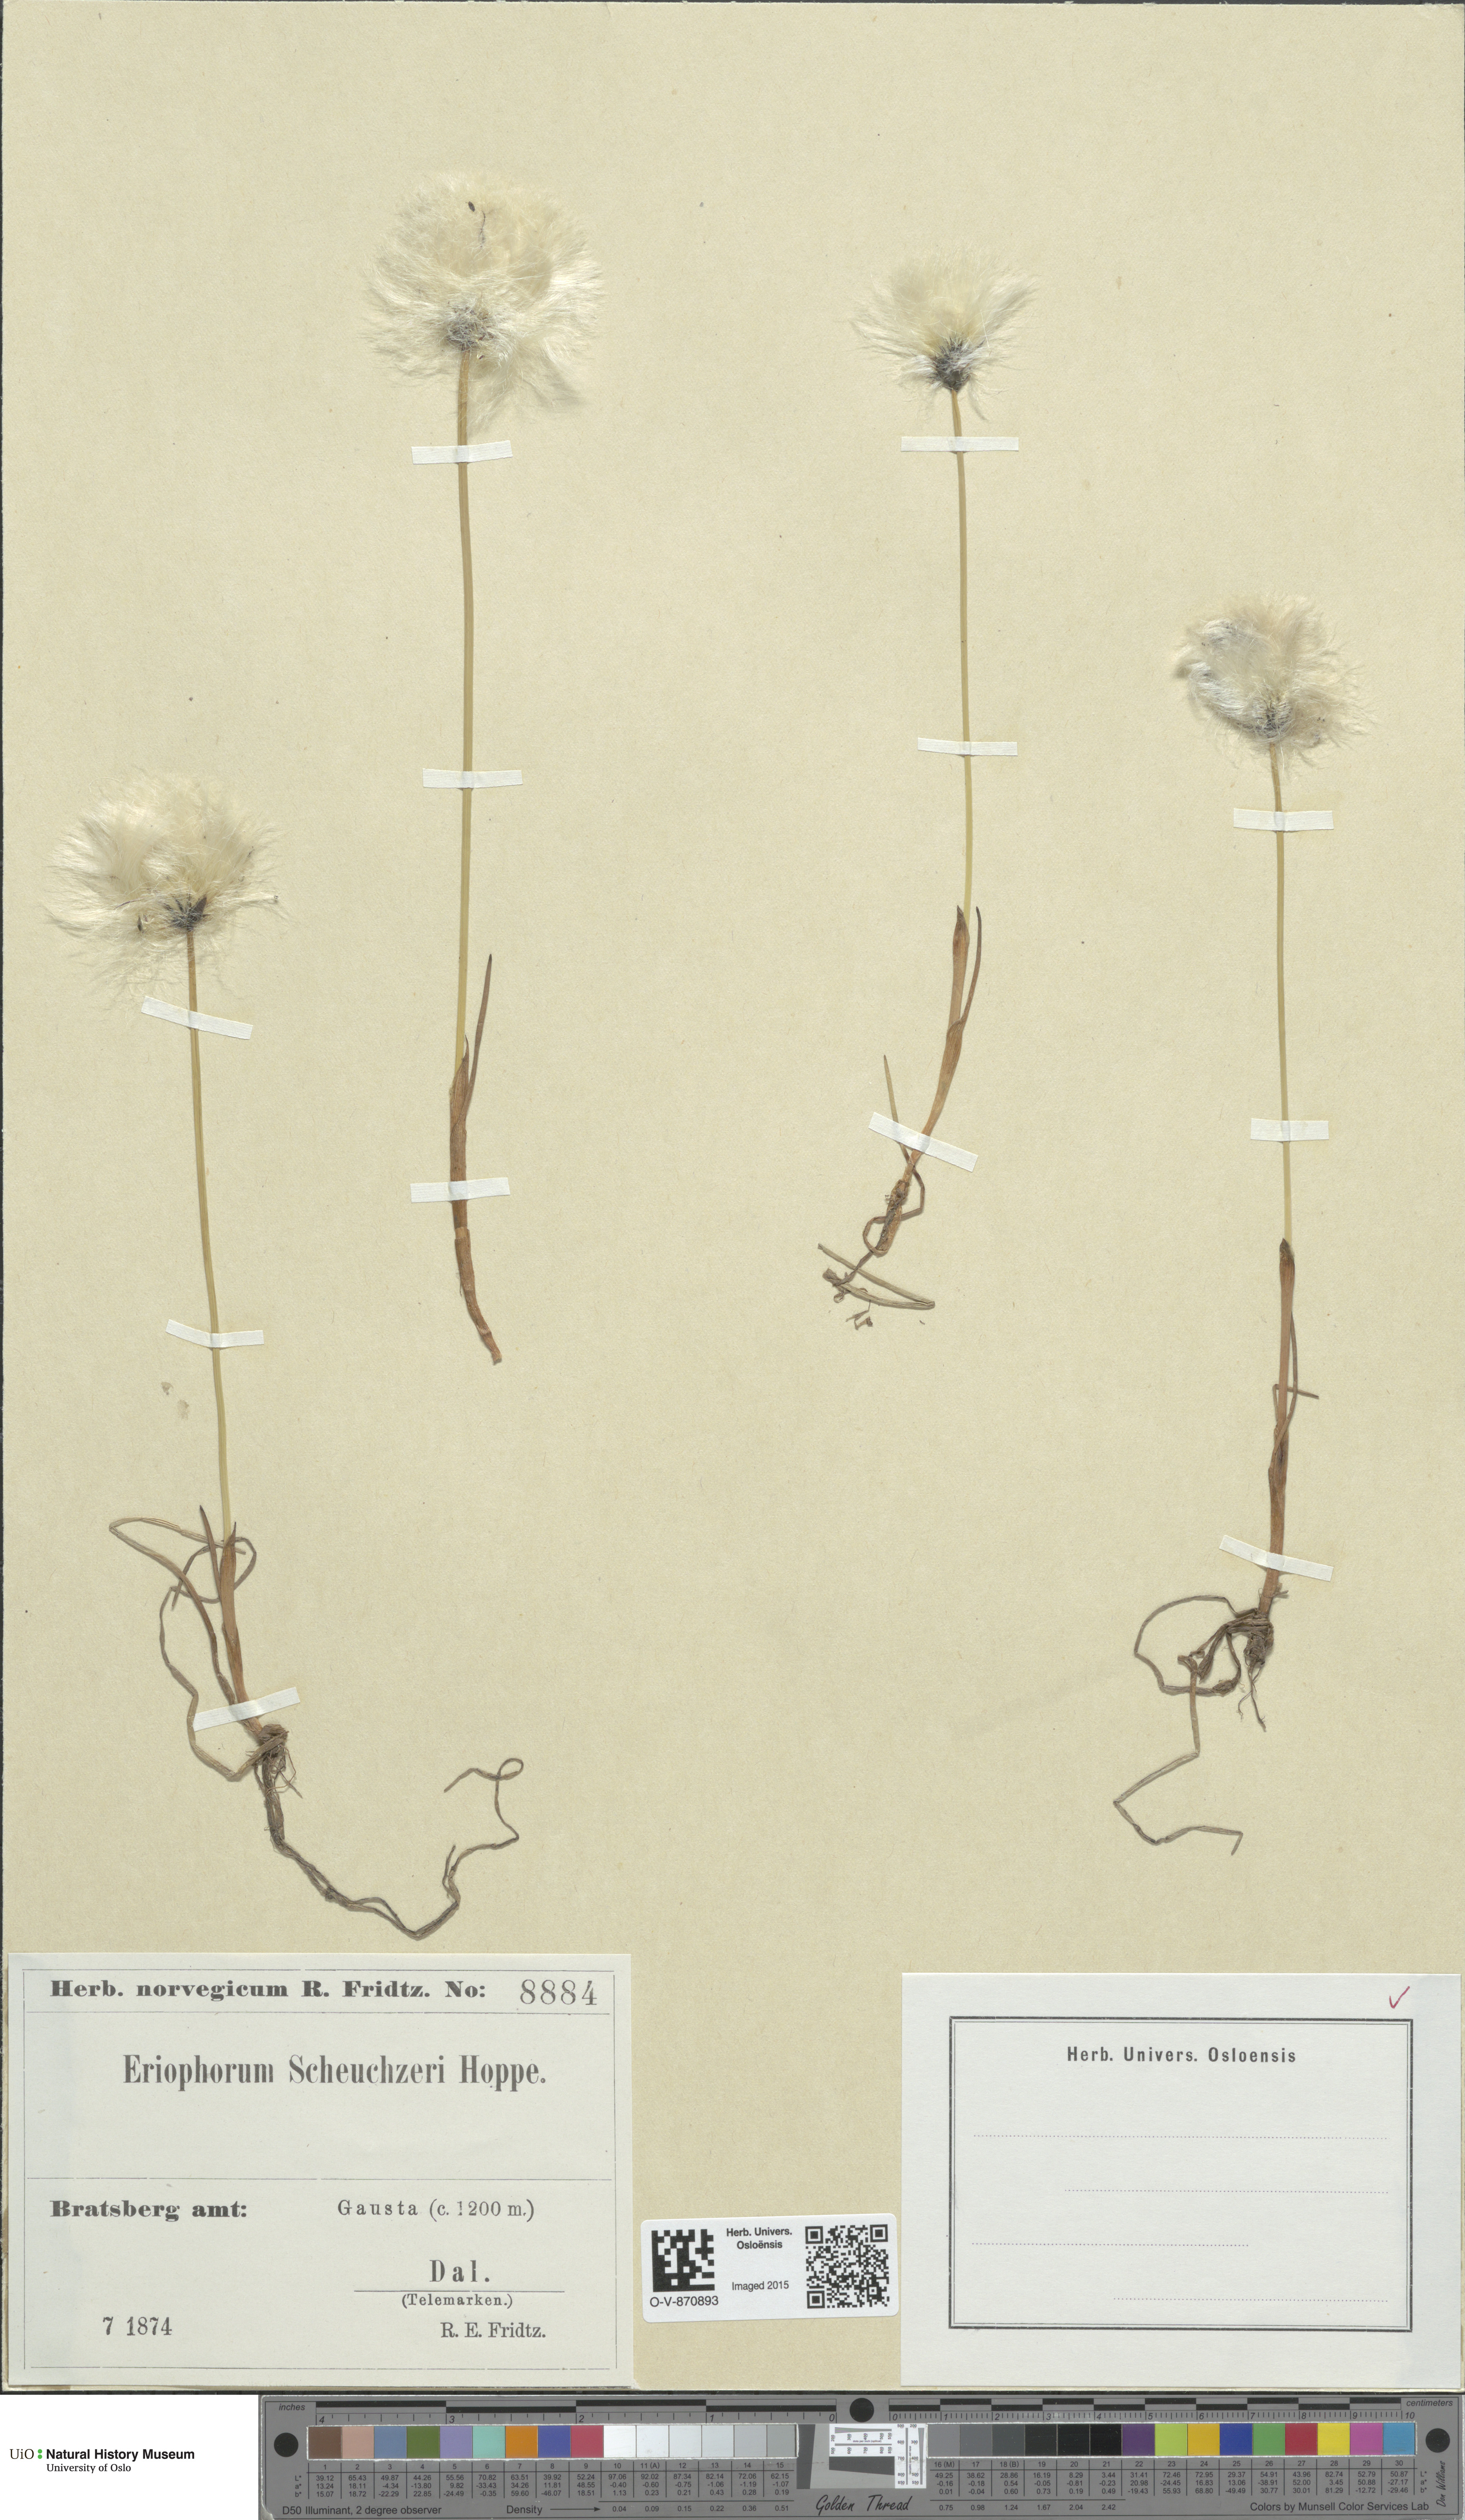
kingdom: Plantae
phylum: Tracheophyta
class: Liliopsida
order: Poales
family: Cyperaceae
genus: Eriophorum
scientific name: Eriophorum scheuchzeri
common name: Scheuchzer's cottongrass
